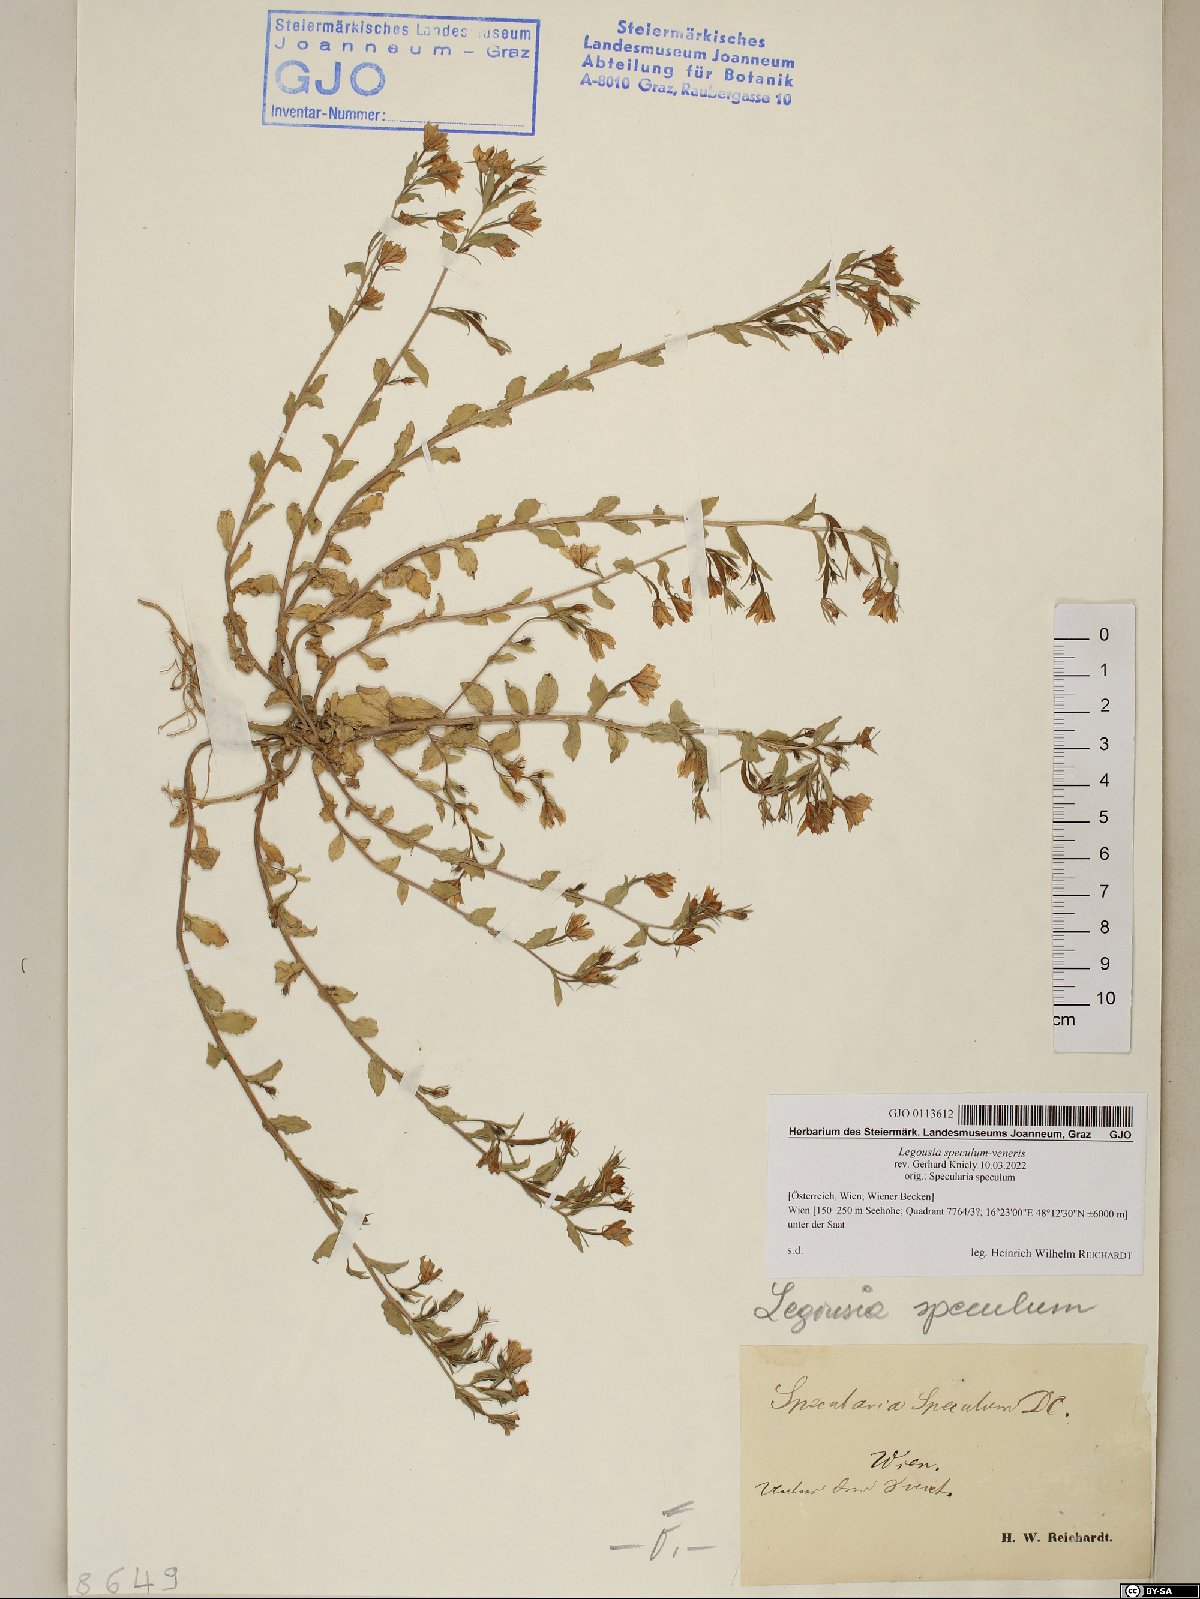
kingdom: Plantae
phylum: Tracheophyta
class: Magnoliopsida
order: Asterales
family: Campanulaceae
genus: Legousia
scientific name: Legousia speculum-veneris
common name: Large venus's-looking-glass
